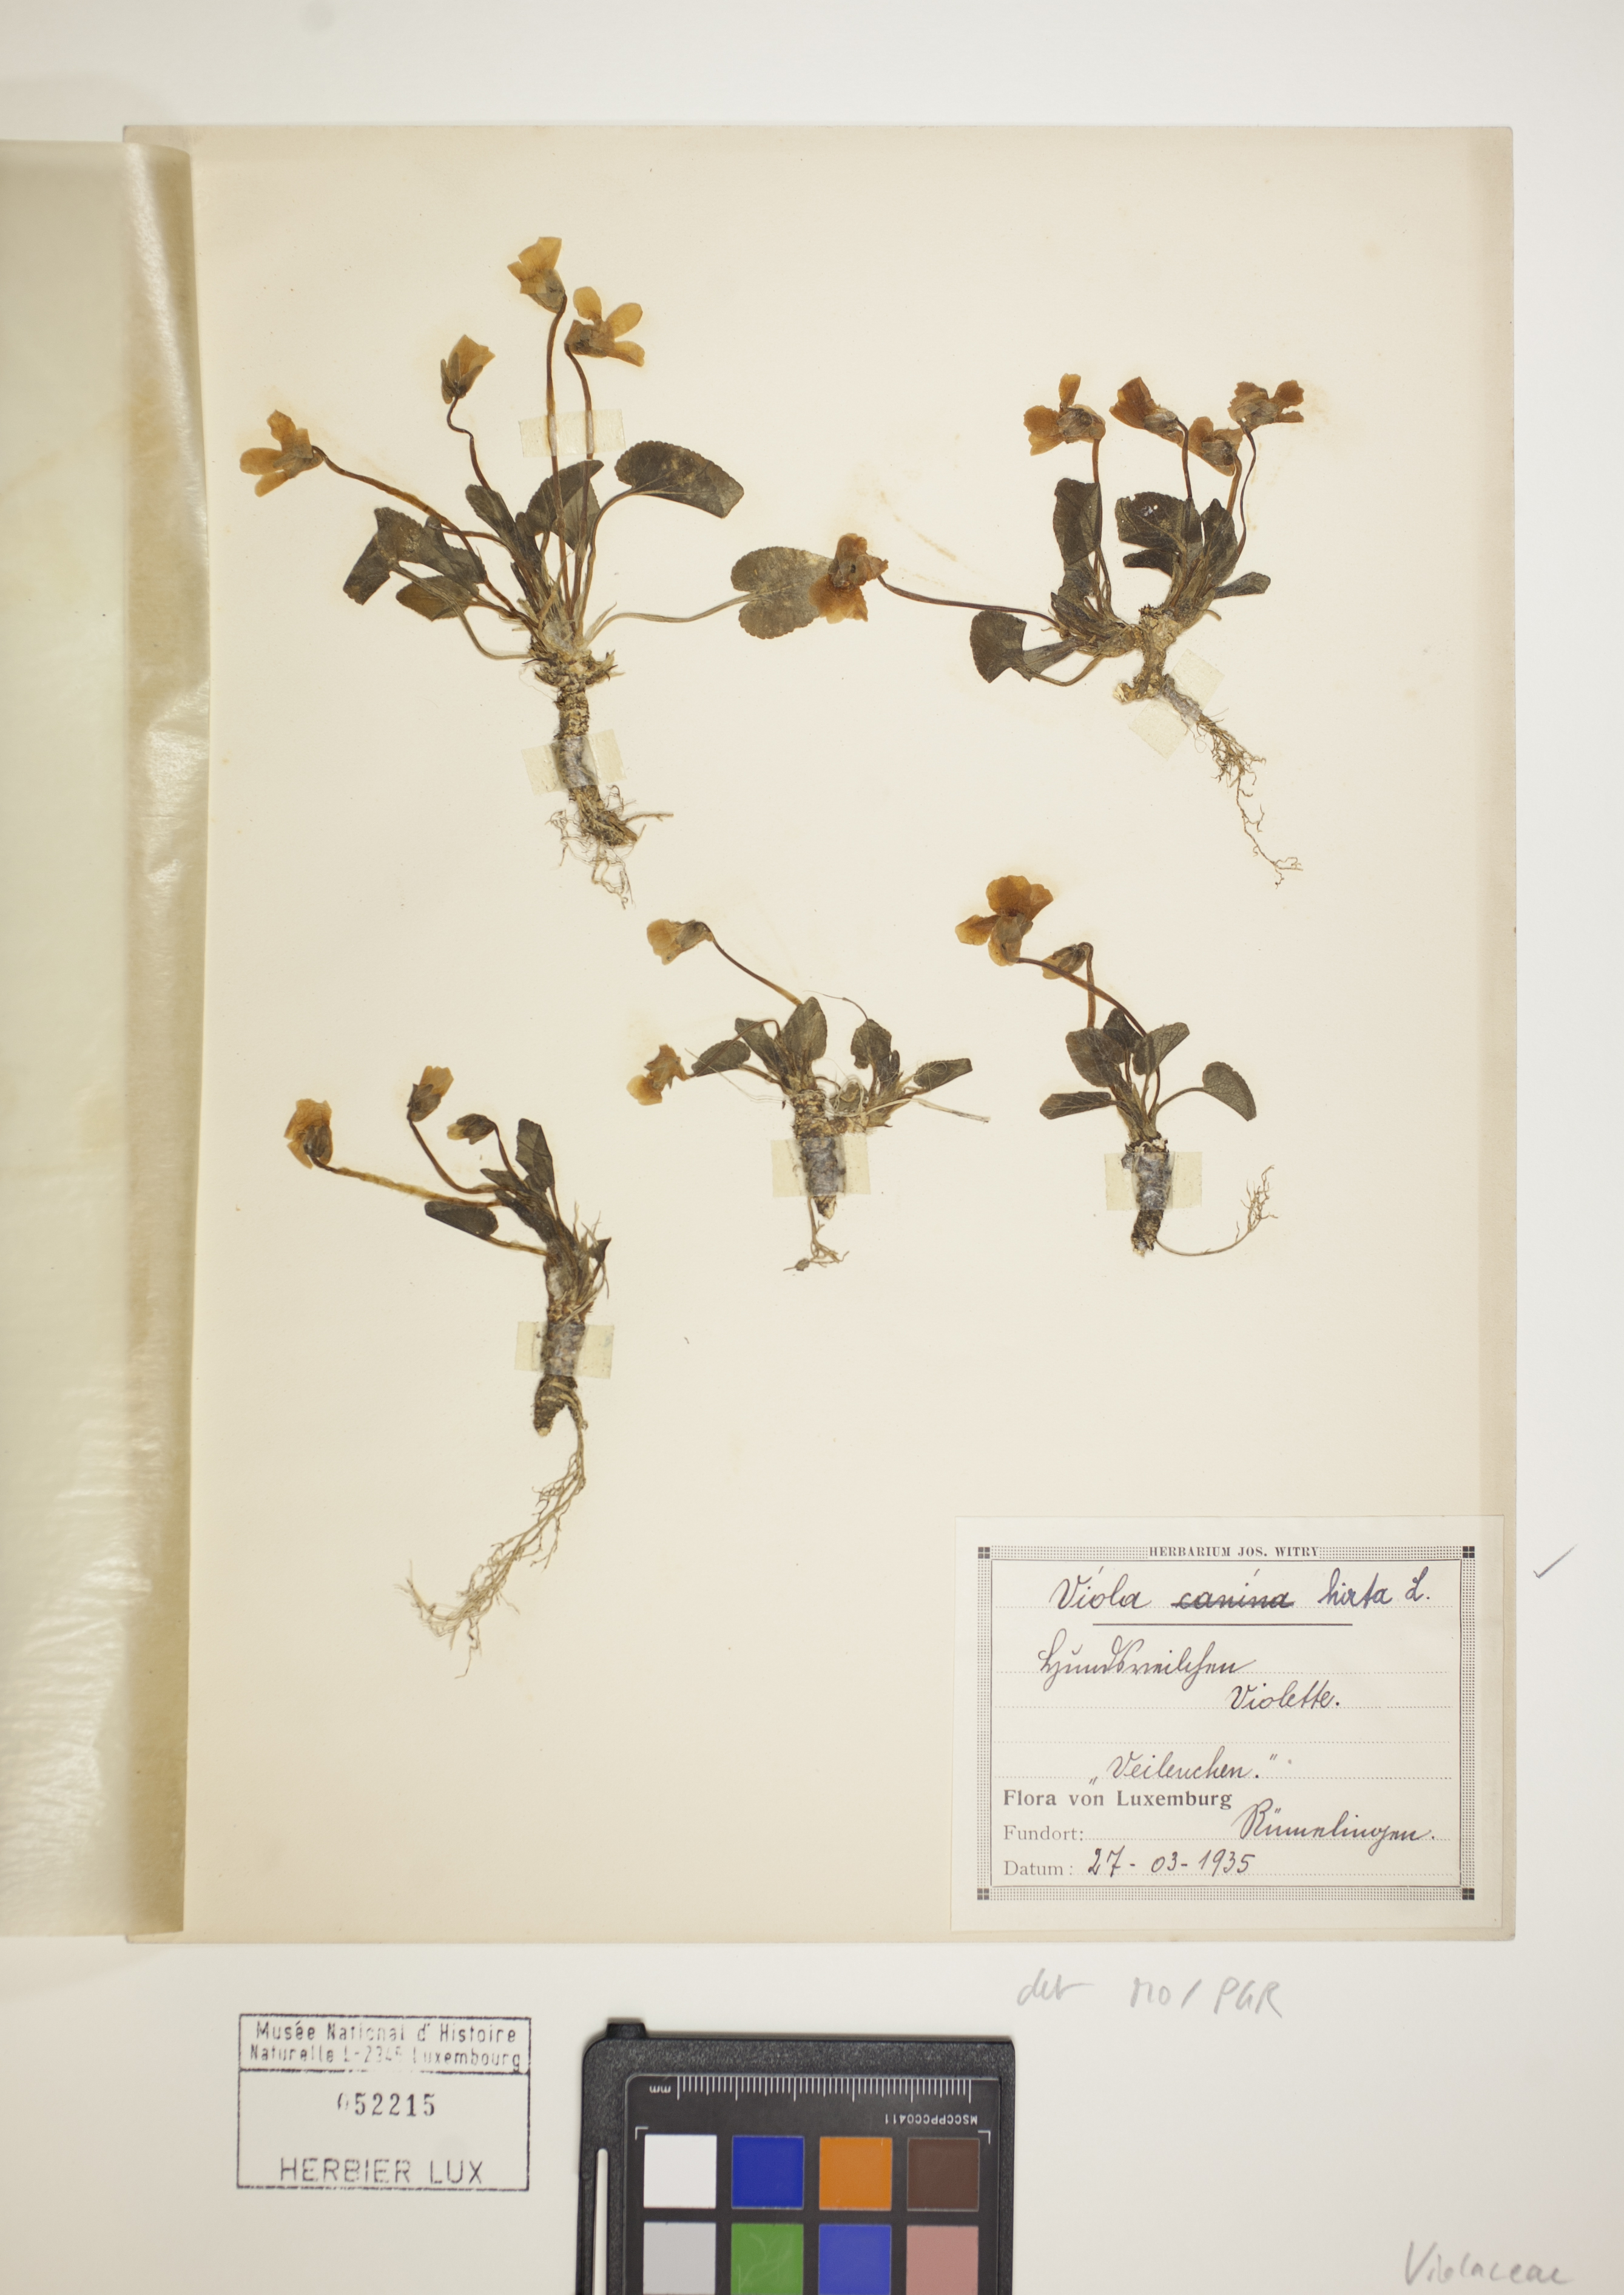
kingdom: Plantae
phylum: Tracheophyta
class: Magnoliopsida
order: Malpighiales
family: Violaceae
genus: Viola
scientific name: Viola hirta
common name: Hairy violet
